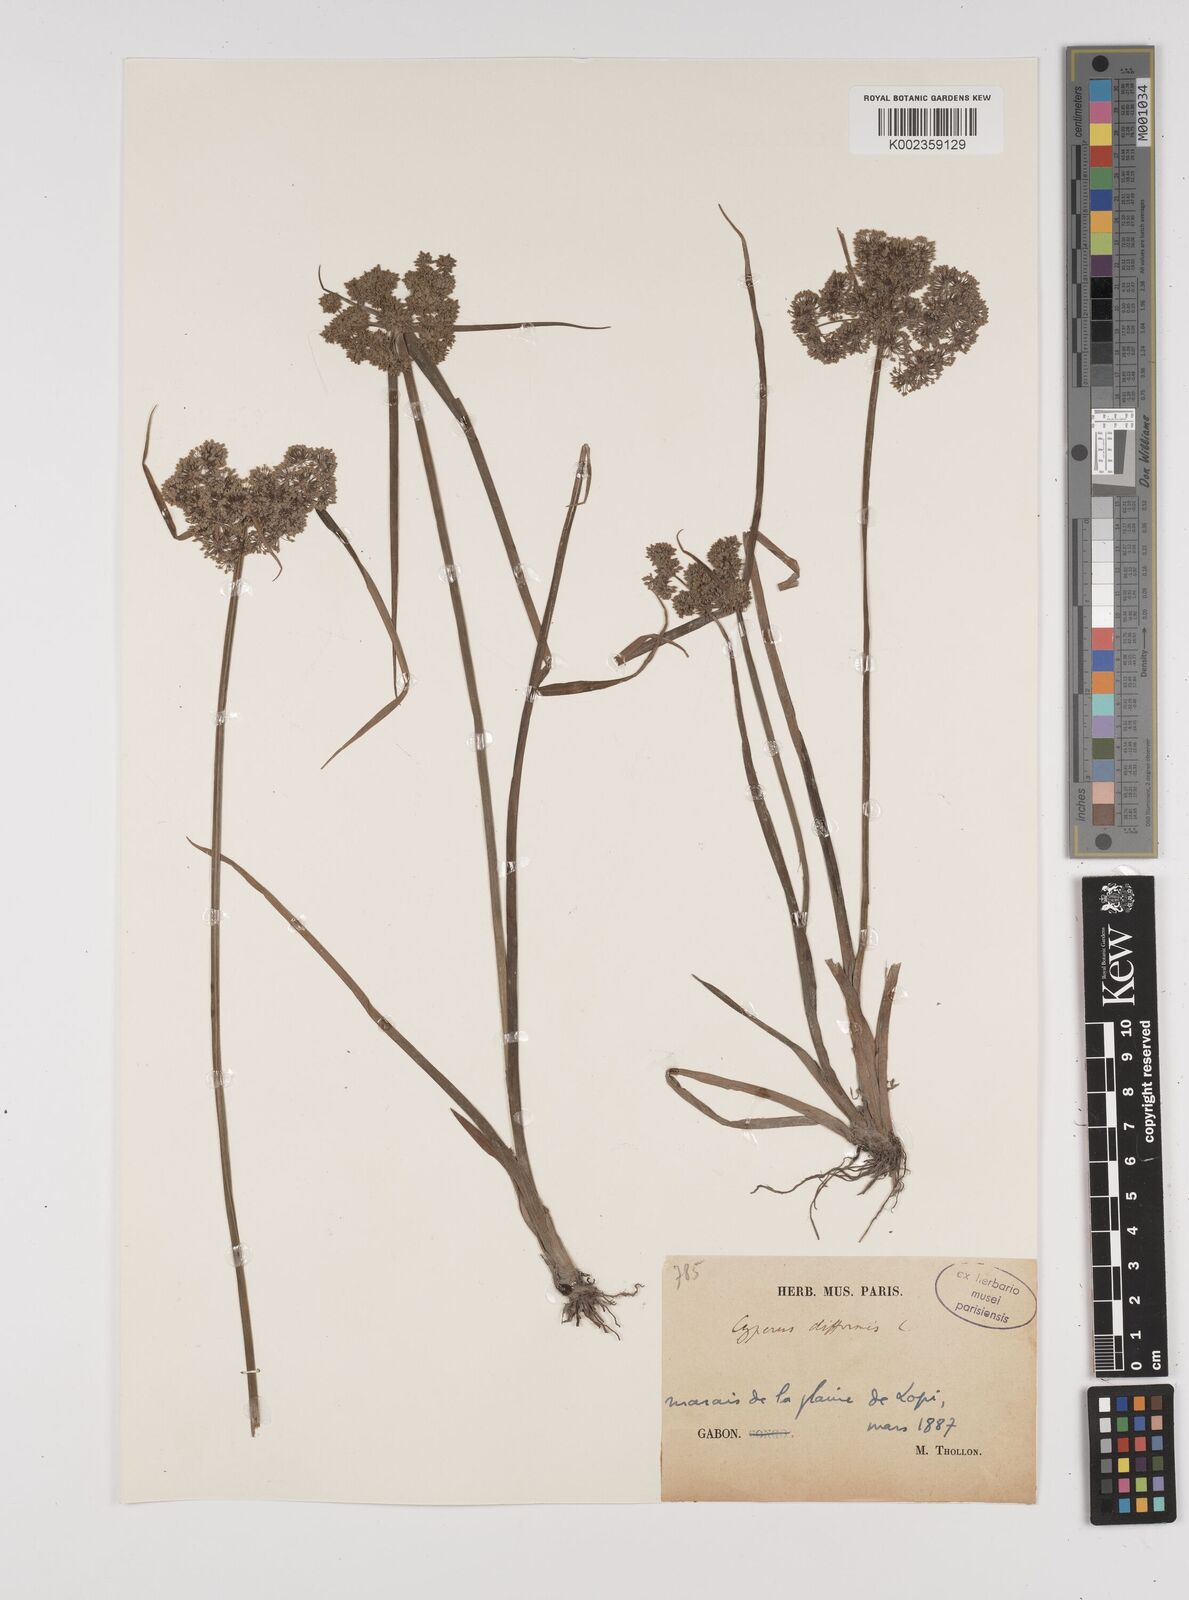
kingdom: Plantae
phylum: Tracheophyta
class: Liliopsida
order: Poales
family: Cyperaceae
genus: Cyperus
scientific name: Cyperus difformis
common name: Variable flatsedge
